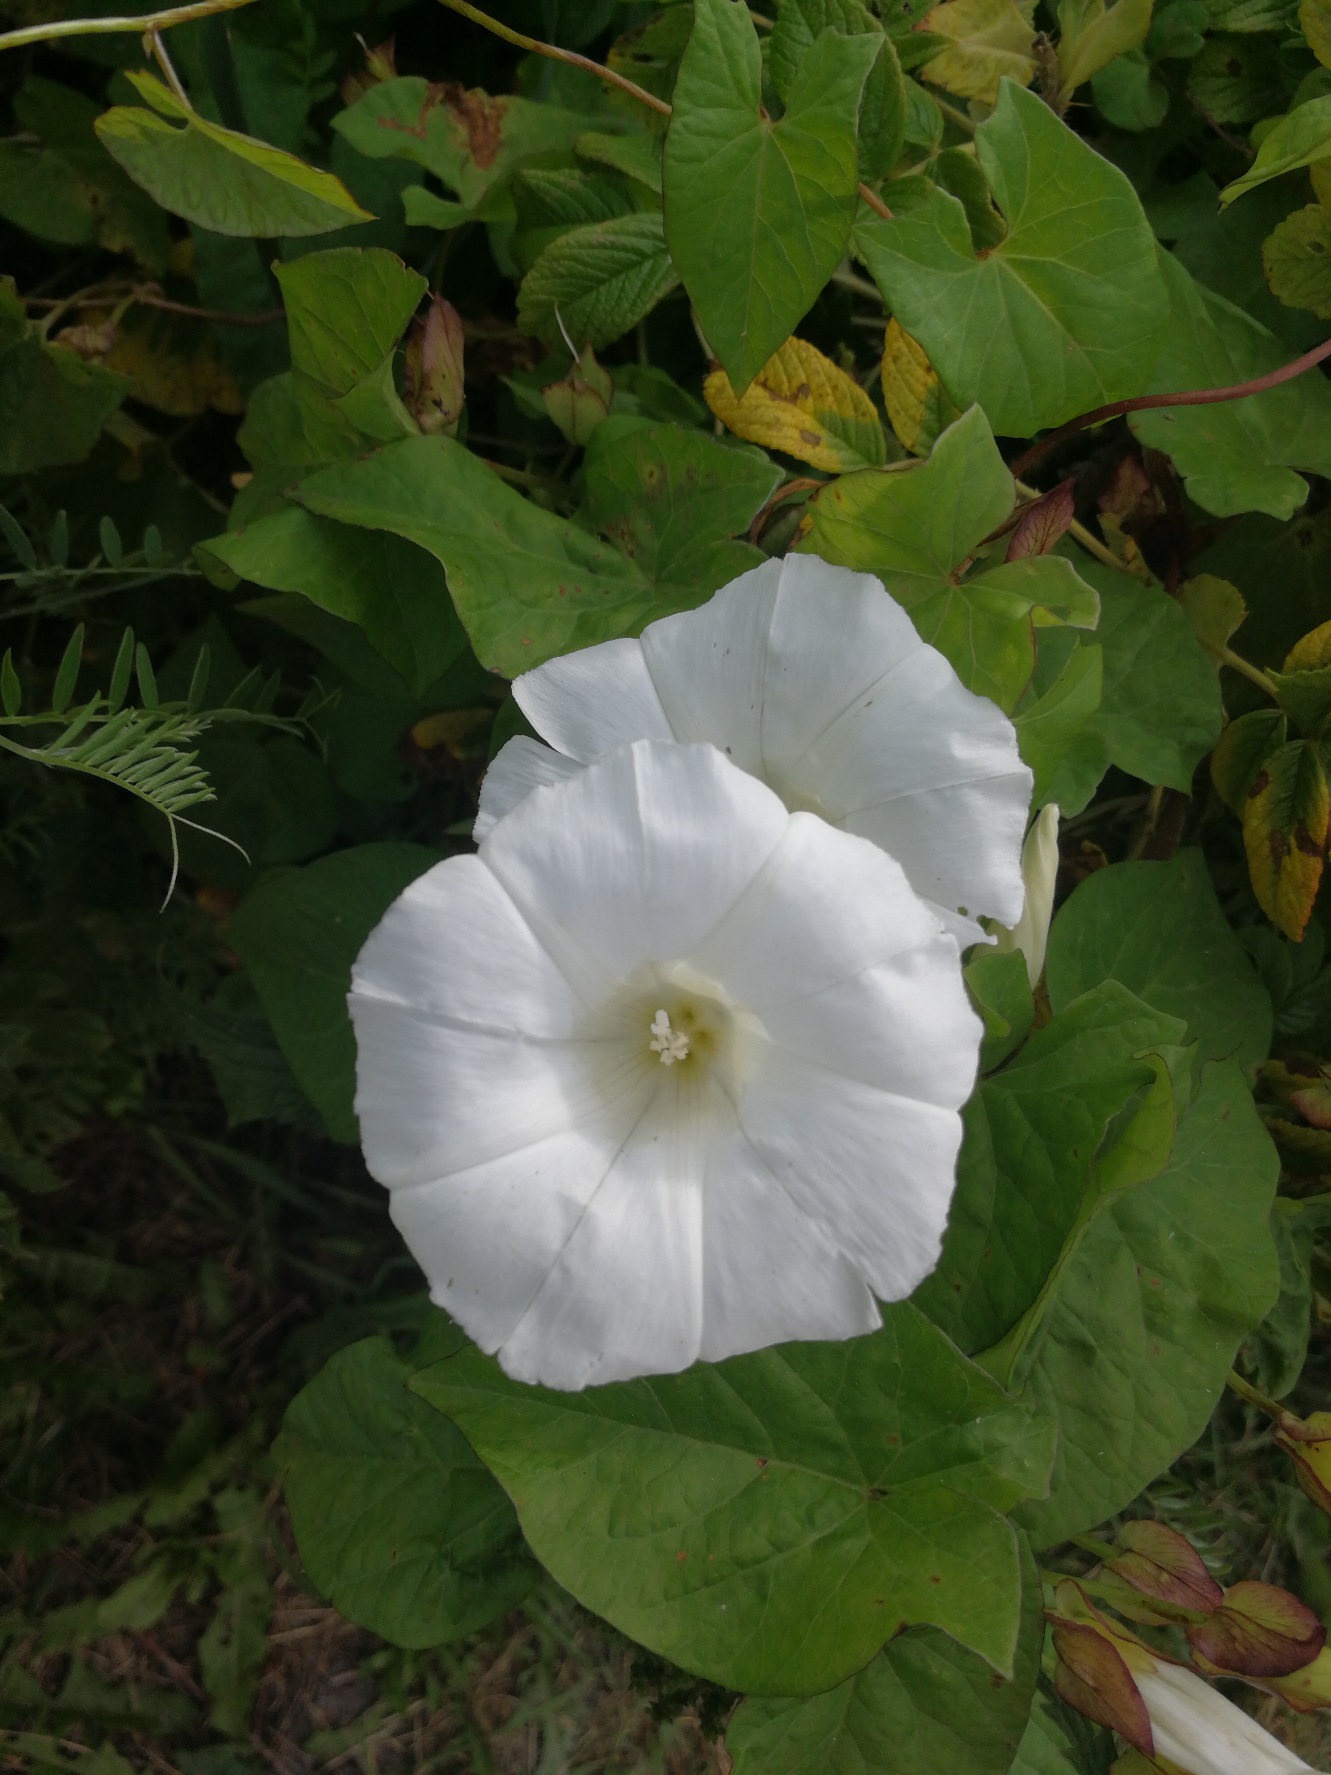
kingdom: Plantae
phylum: Tracheophyta
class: Magnoliopsida
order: Solanales
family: Convolvulaceae
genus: Calystegia
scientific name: Calystegia sepium
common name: Gærde-snerle
